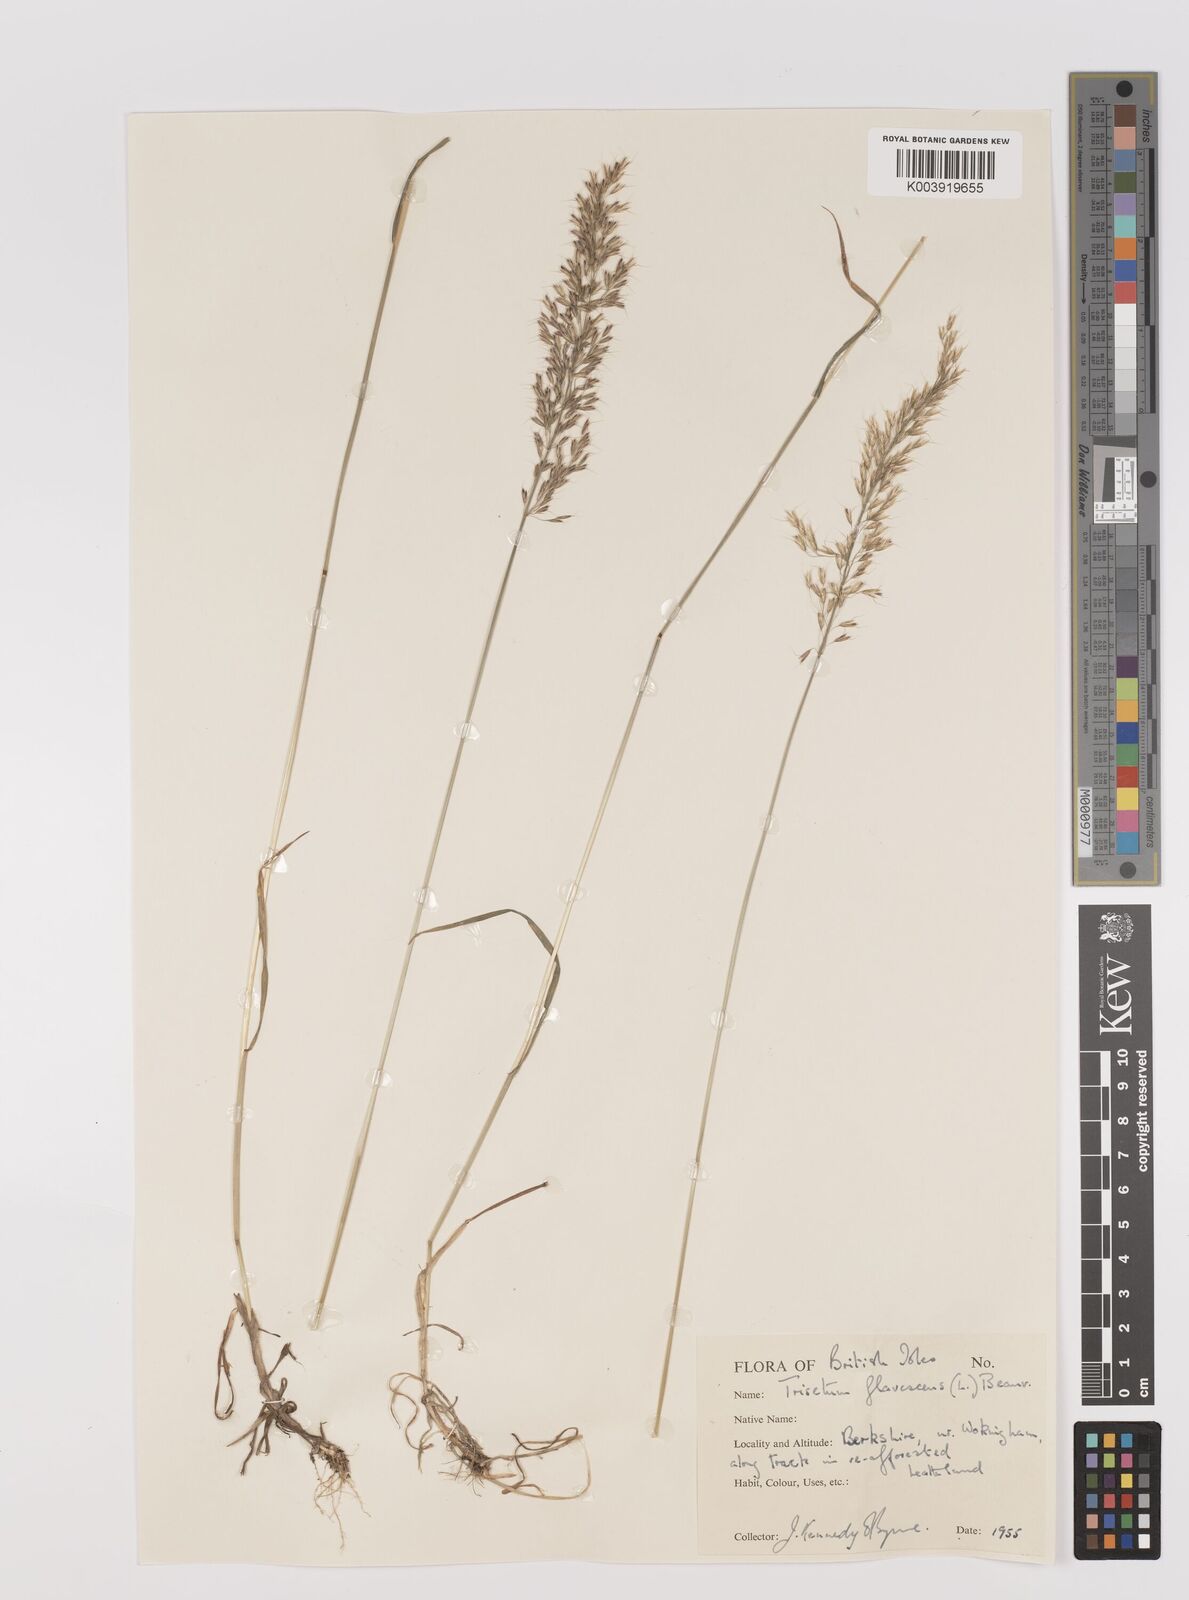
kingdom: Plantae
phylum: Tracheophyta
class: Liliopsida
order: Poales
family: Poaceae
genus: Trisetum
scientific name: Trisetum flavescens
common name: Yellow oat-grass
